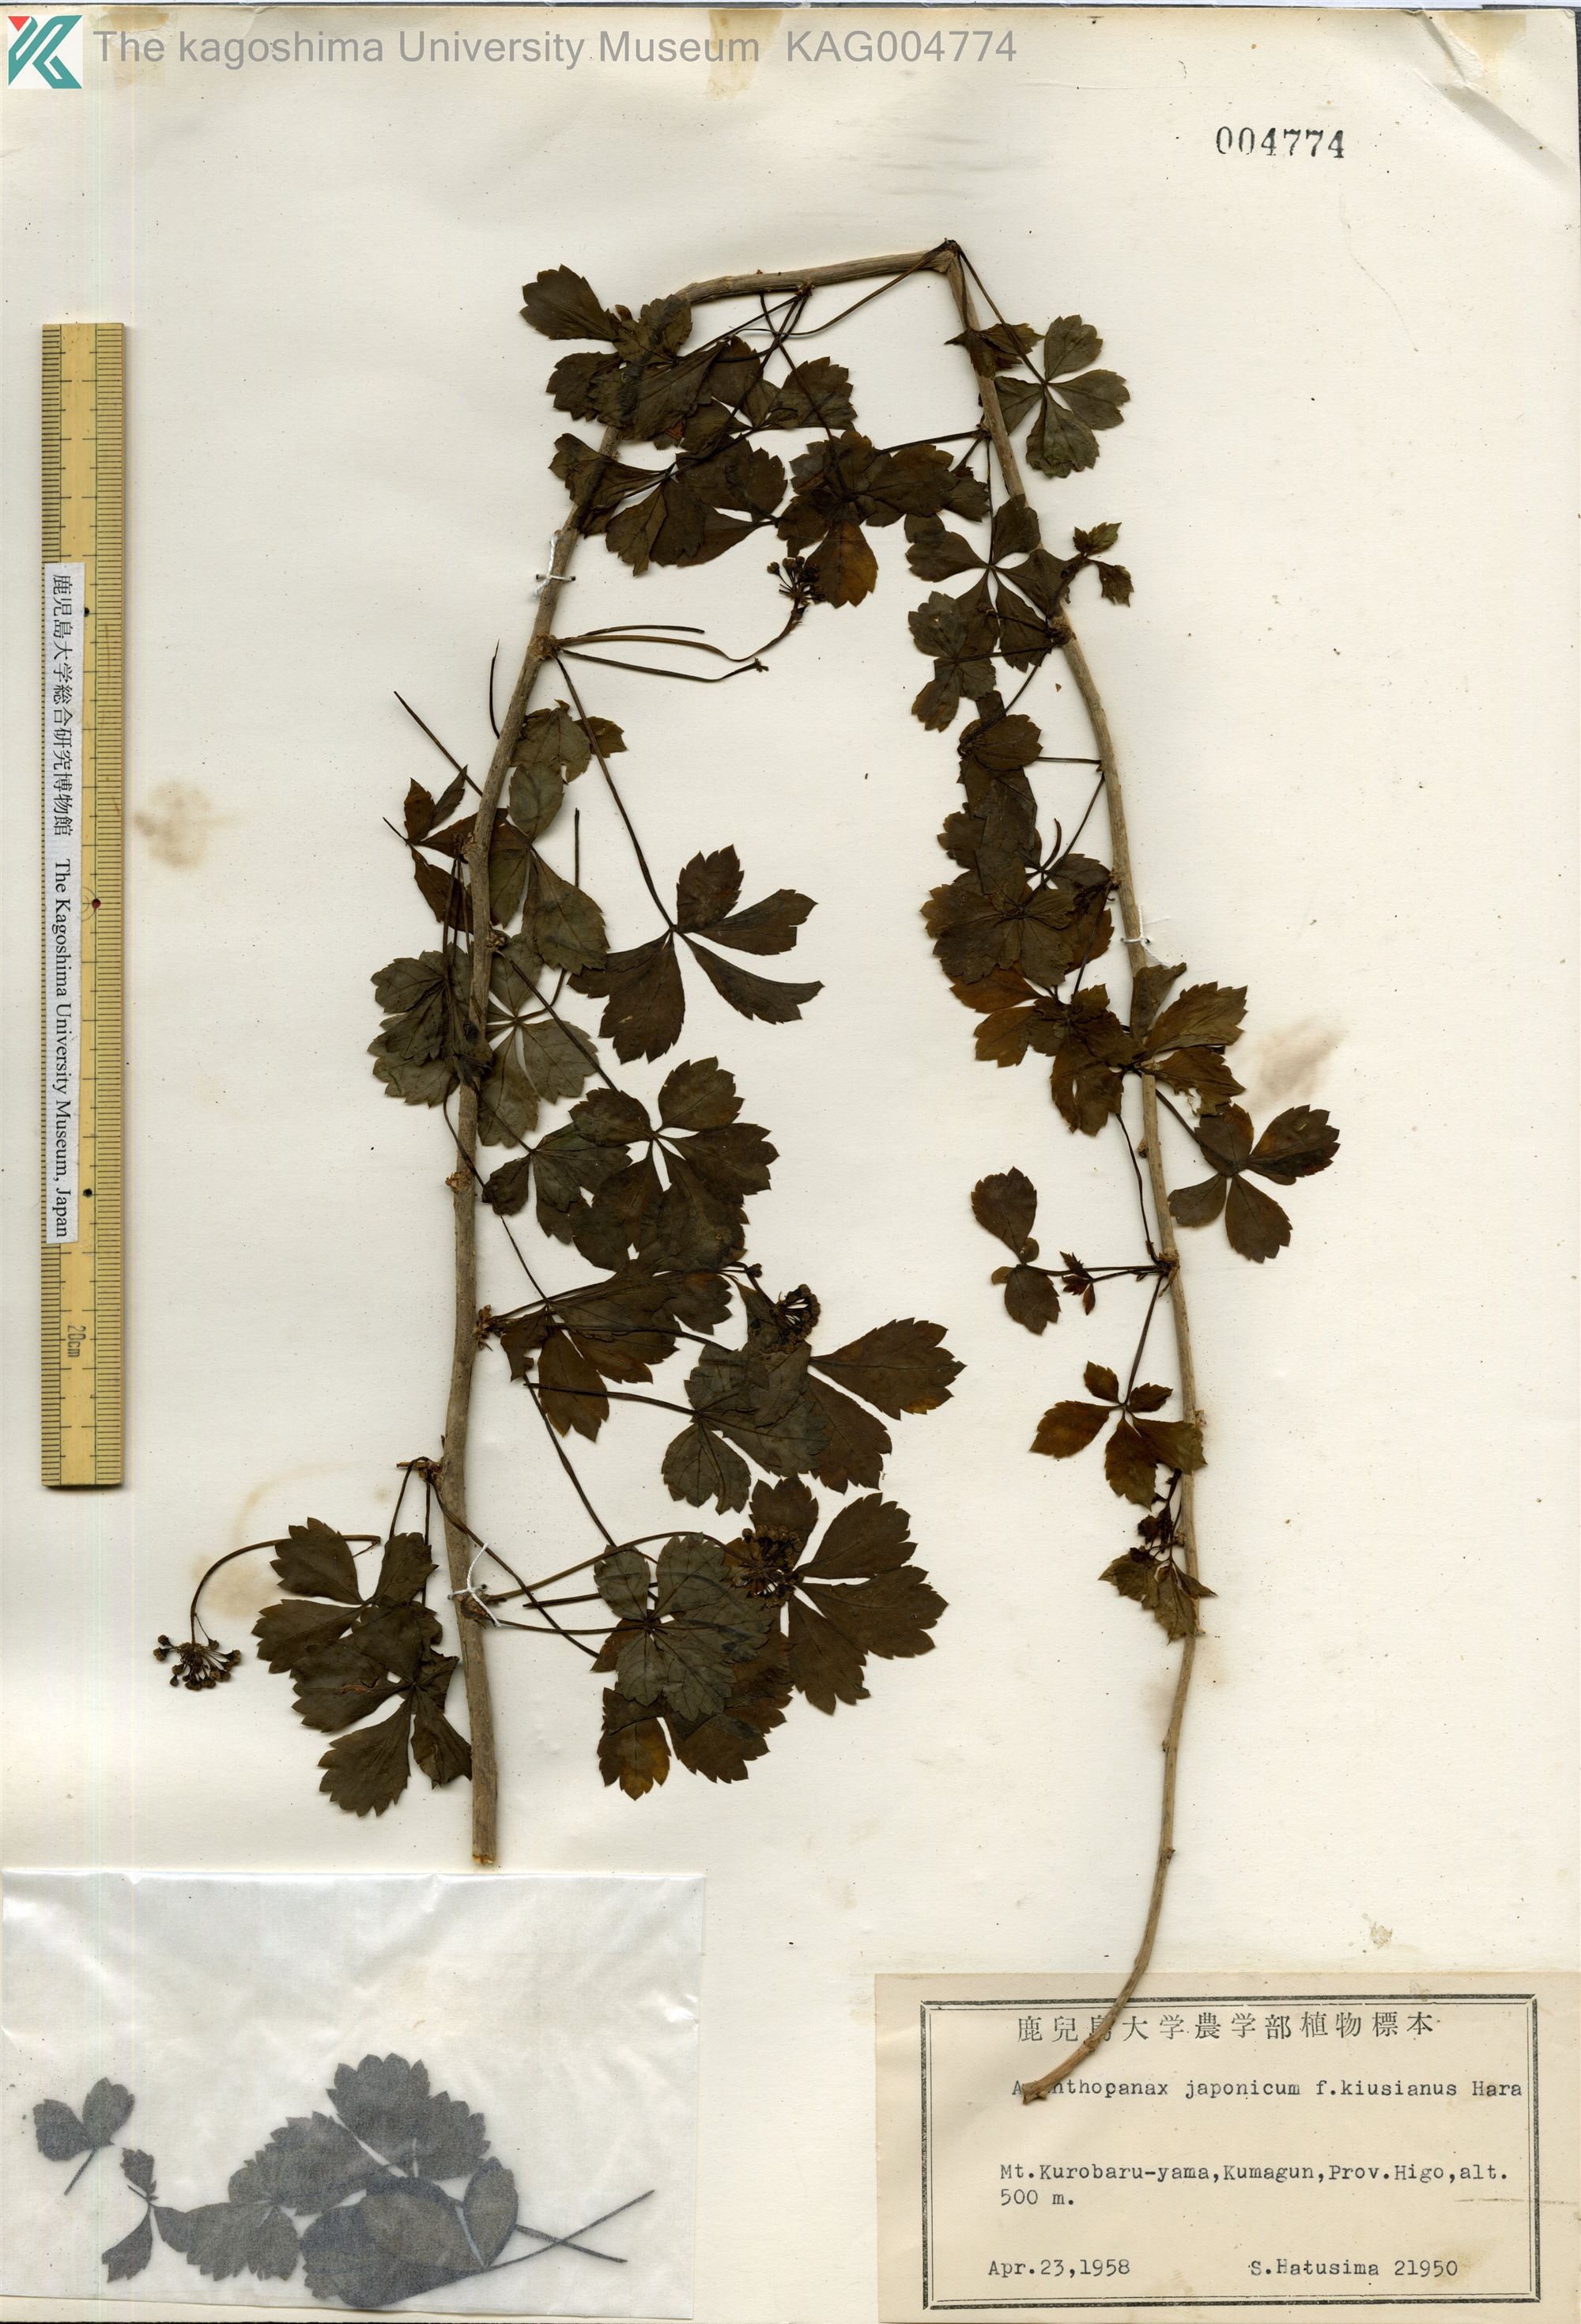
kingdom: Plantae
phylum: Tracheophyta
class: Magnoliopsida
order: Apiales
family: Araliaceae
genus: Eleutherococcus
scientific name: Eleutherococcus japonicus
